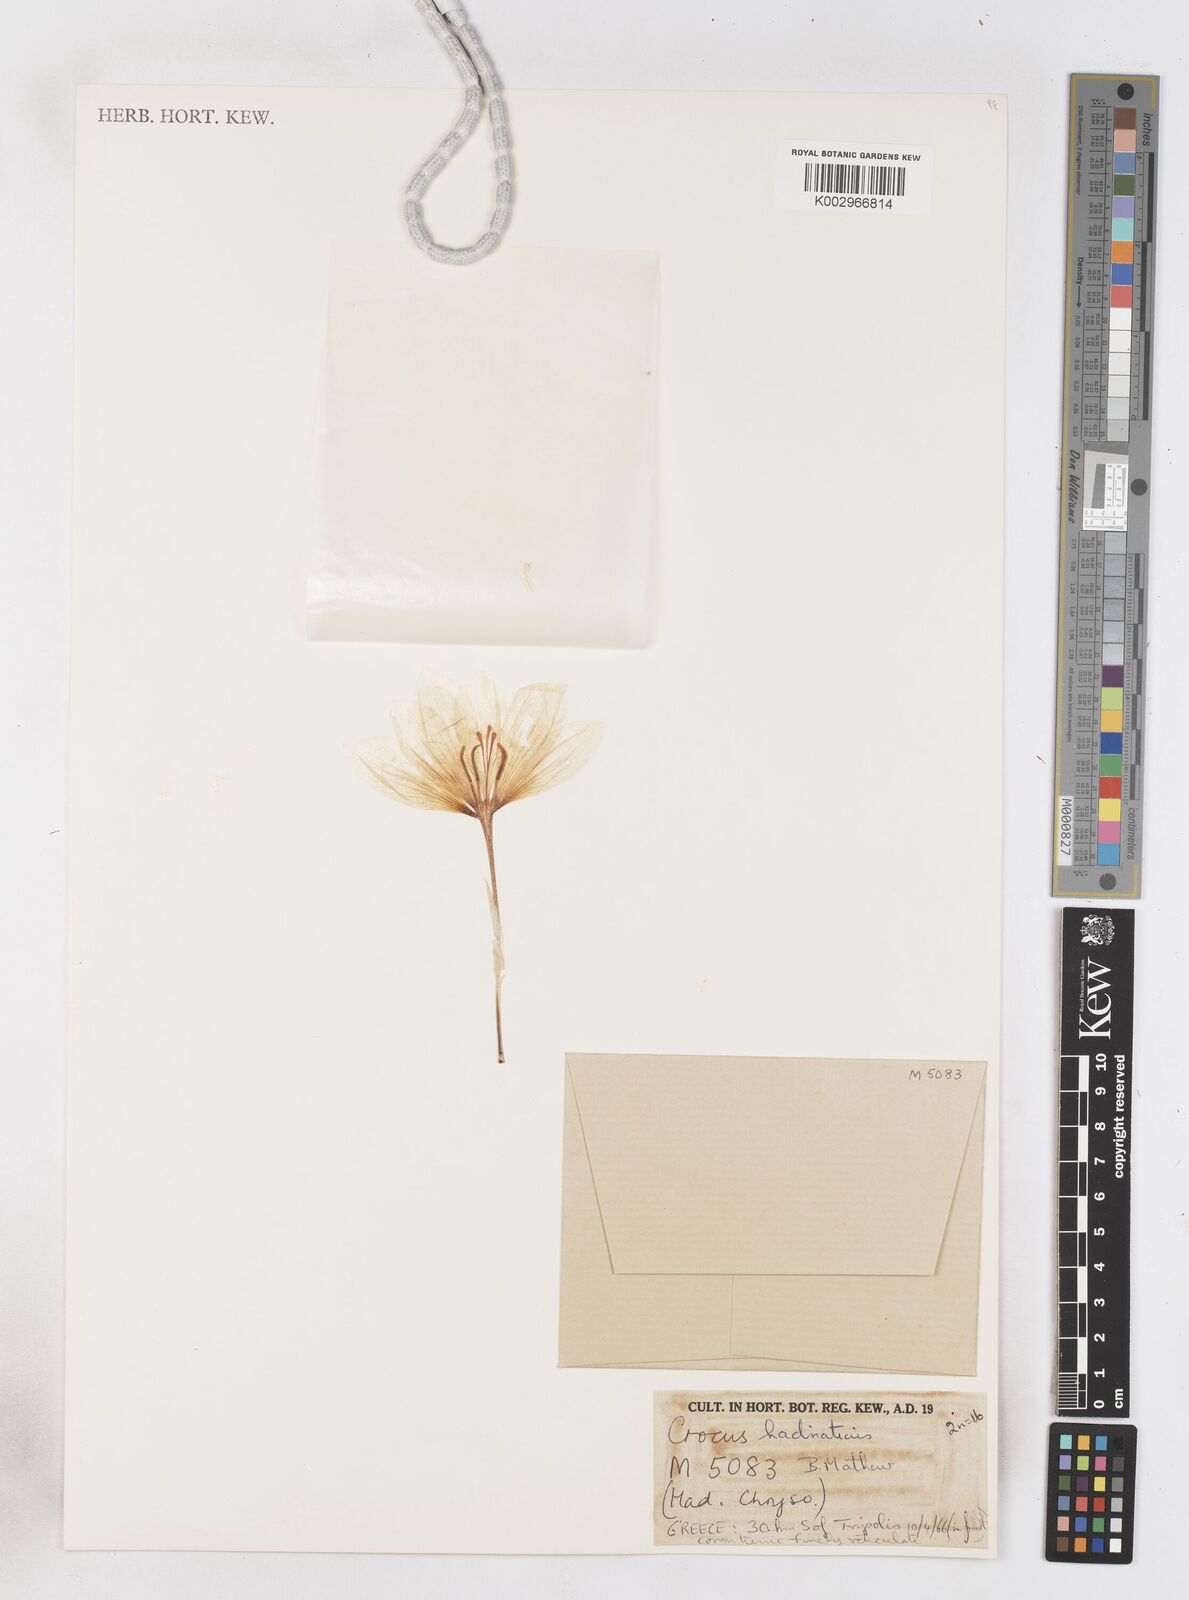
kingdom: Plantae
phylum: Tracheophyta
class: Liliopsida
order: Asparagales
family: Iridaceae
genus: Crocus
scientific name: Crocus hadriaticus
